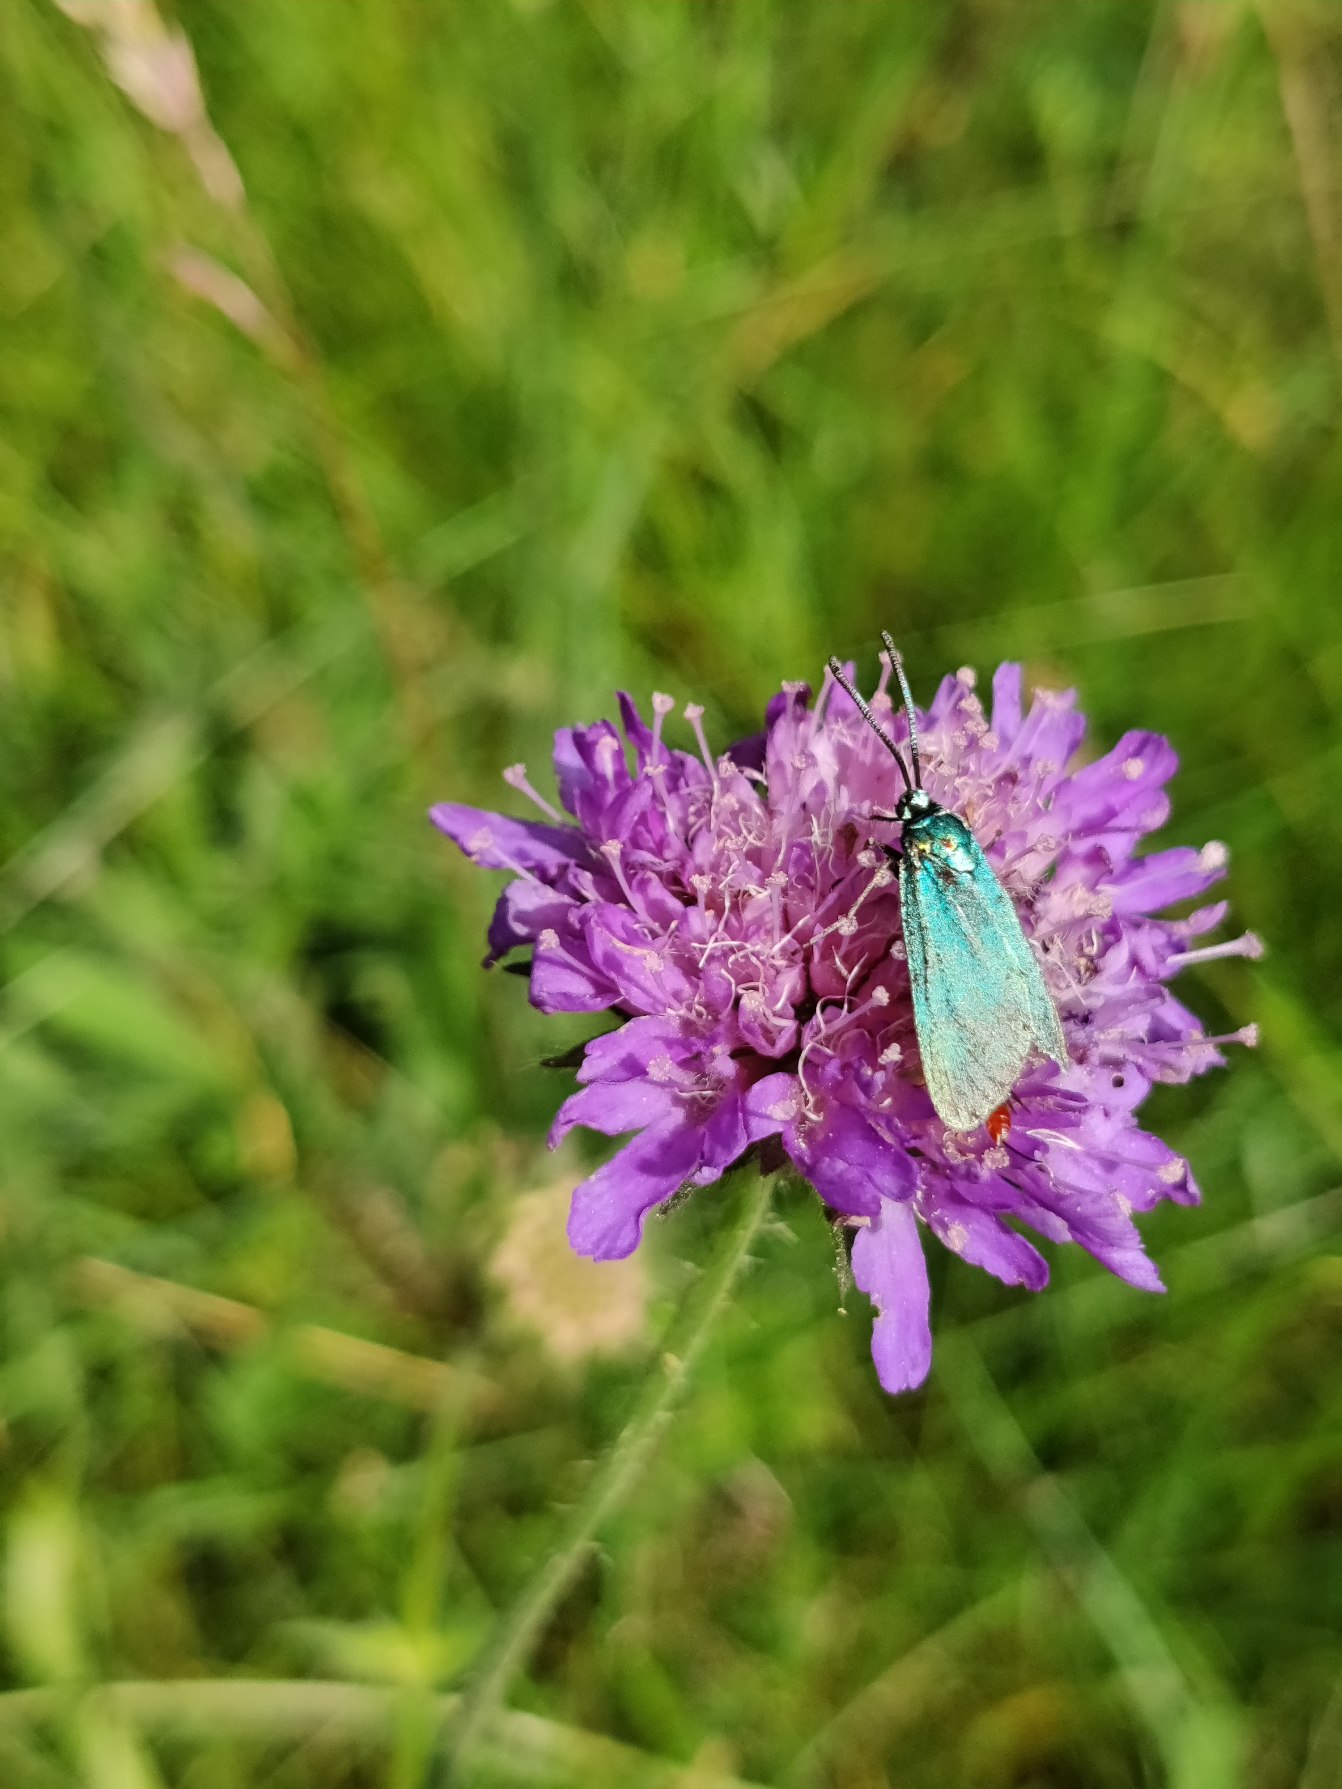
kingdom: Animalia
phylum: Arthropoda
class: Insecta
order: Lepidoptera
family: Zygaenidae
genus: Adscita
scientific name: Adscita statices
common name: Metalvinge
